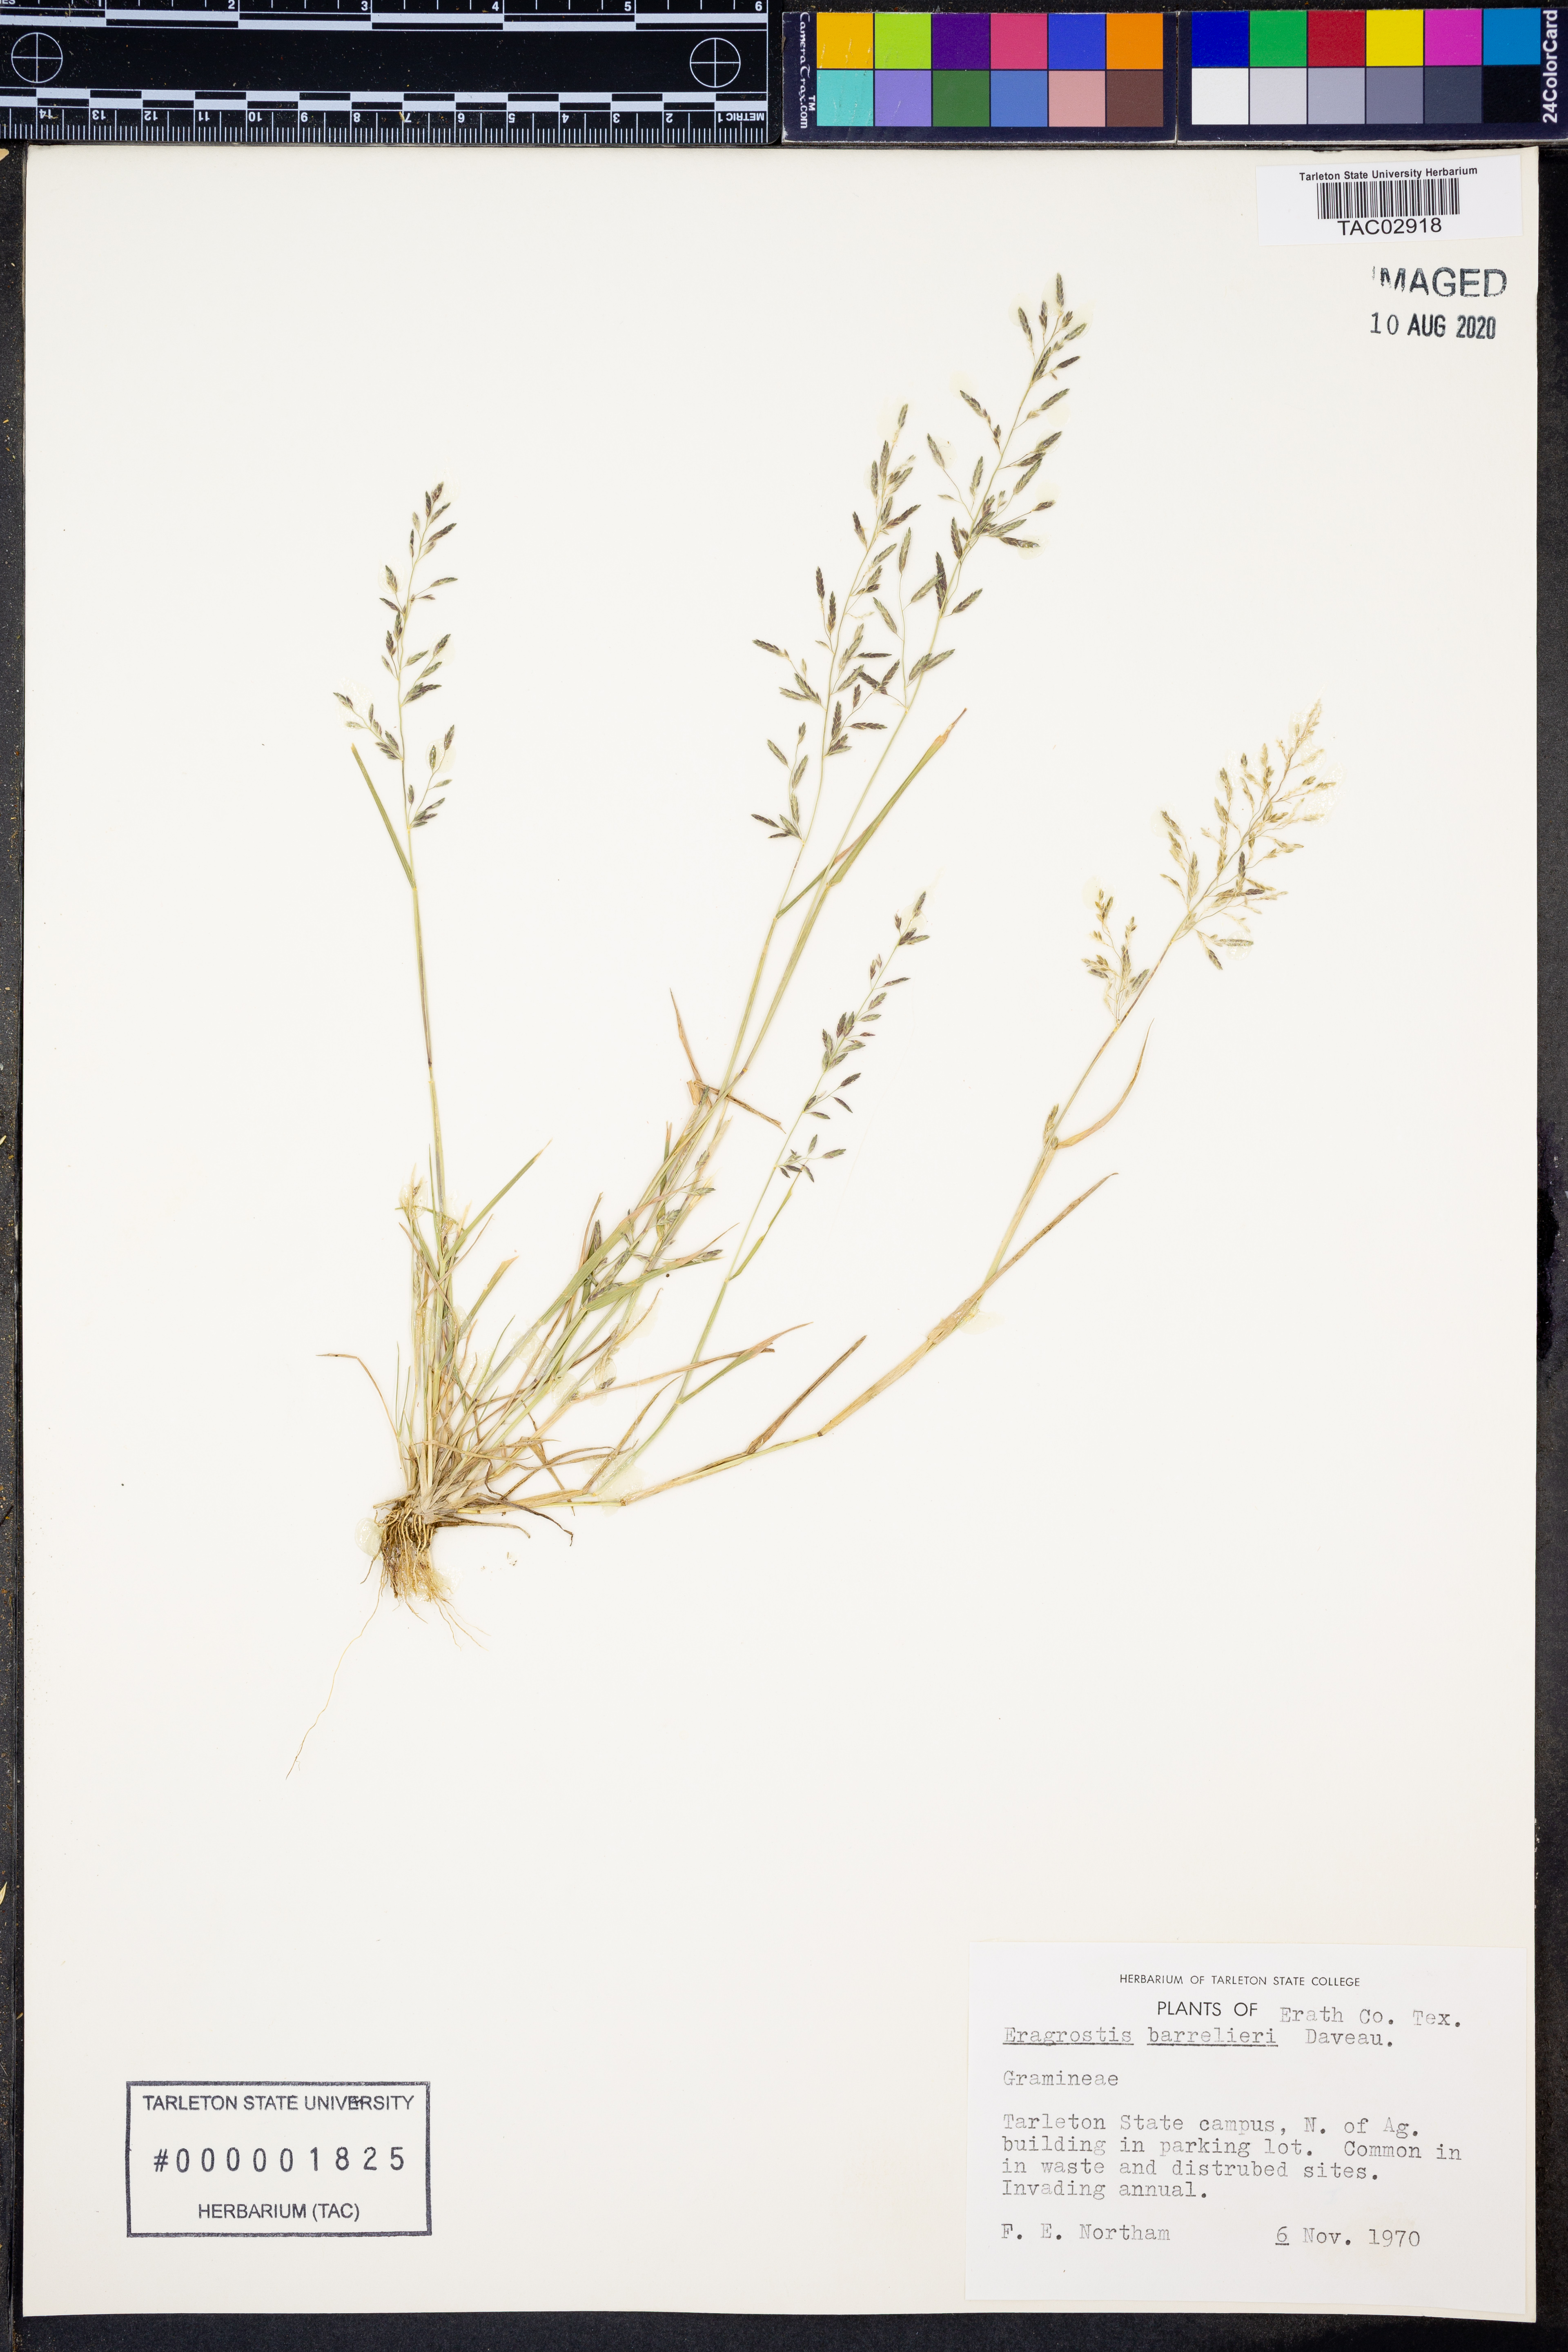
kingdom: Plantae
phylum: Tracheophyta
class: Liliopsida
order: Poales
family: Poaceae
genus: Eragrostis
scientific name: Eragrostis barrelieri
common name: Mediterranean lovegrass
